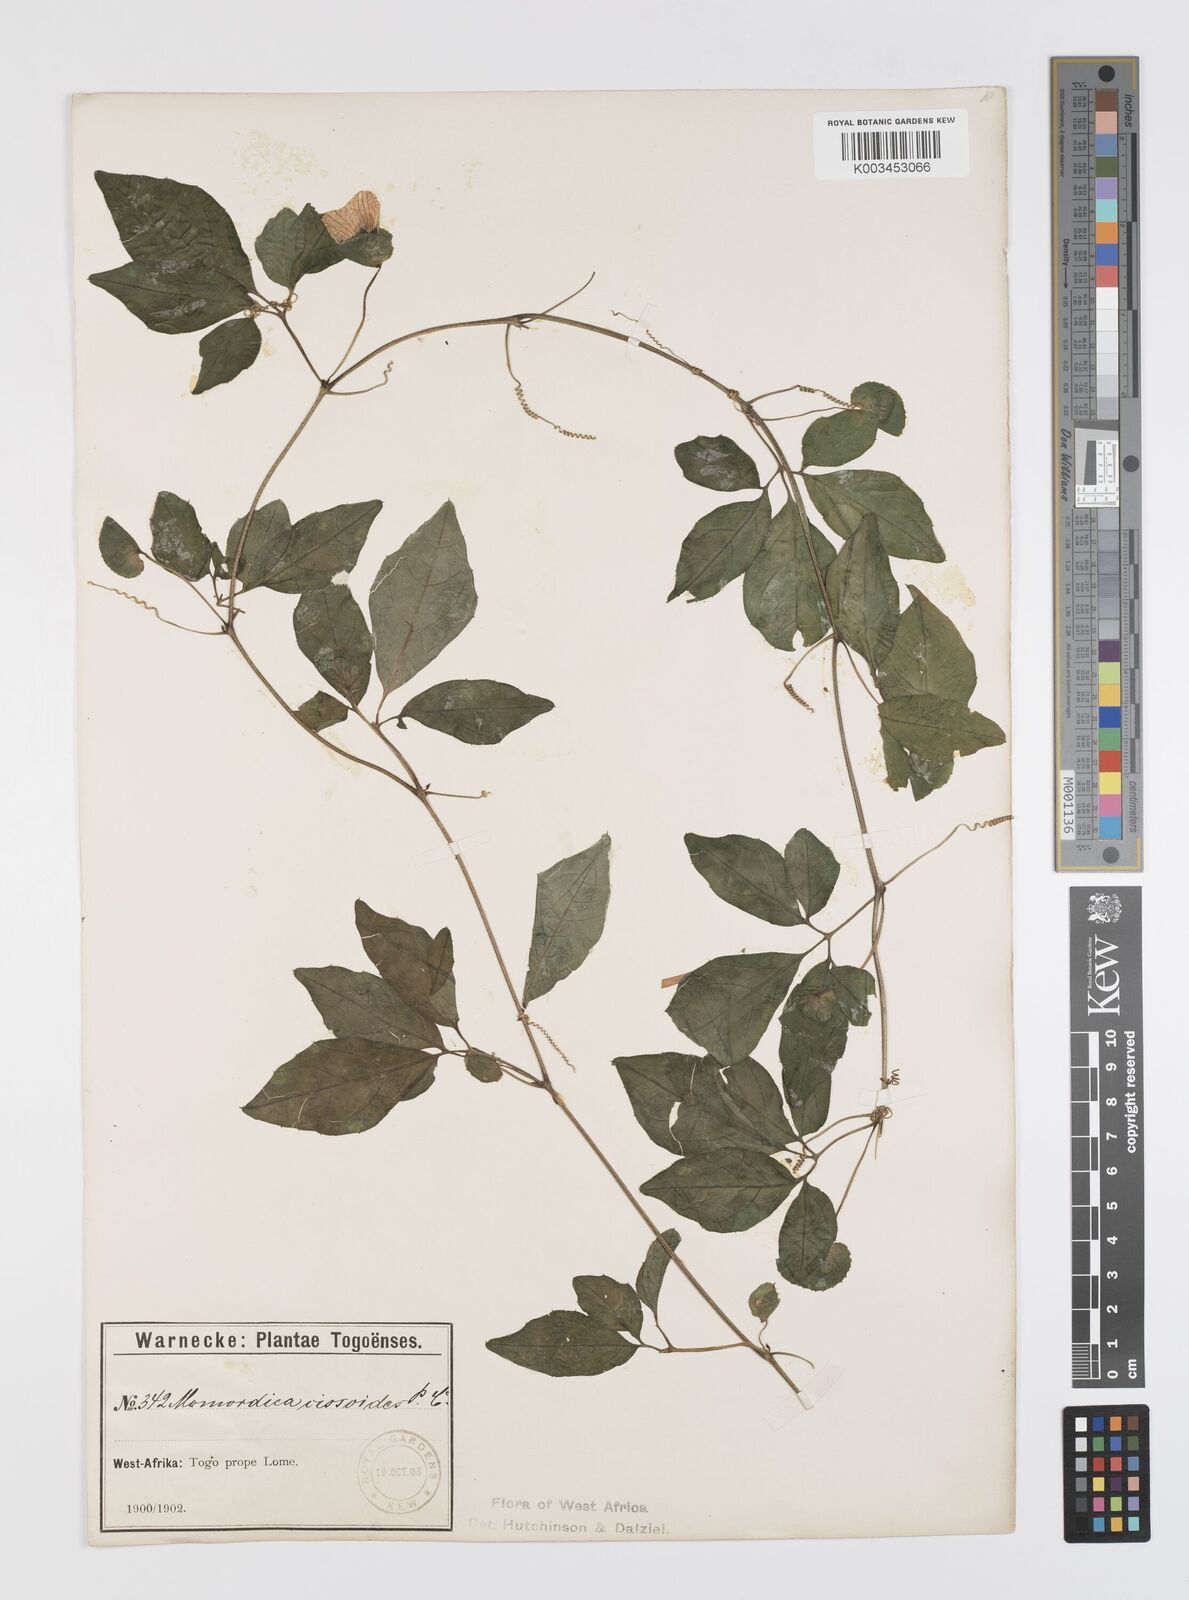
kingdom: Plantae
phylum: Tracheophyta
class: Magnoliopsida
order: Cucurbitales
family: Cucurbitaceae
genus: Momordica
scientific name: Momordica cissoides
